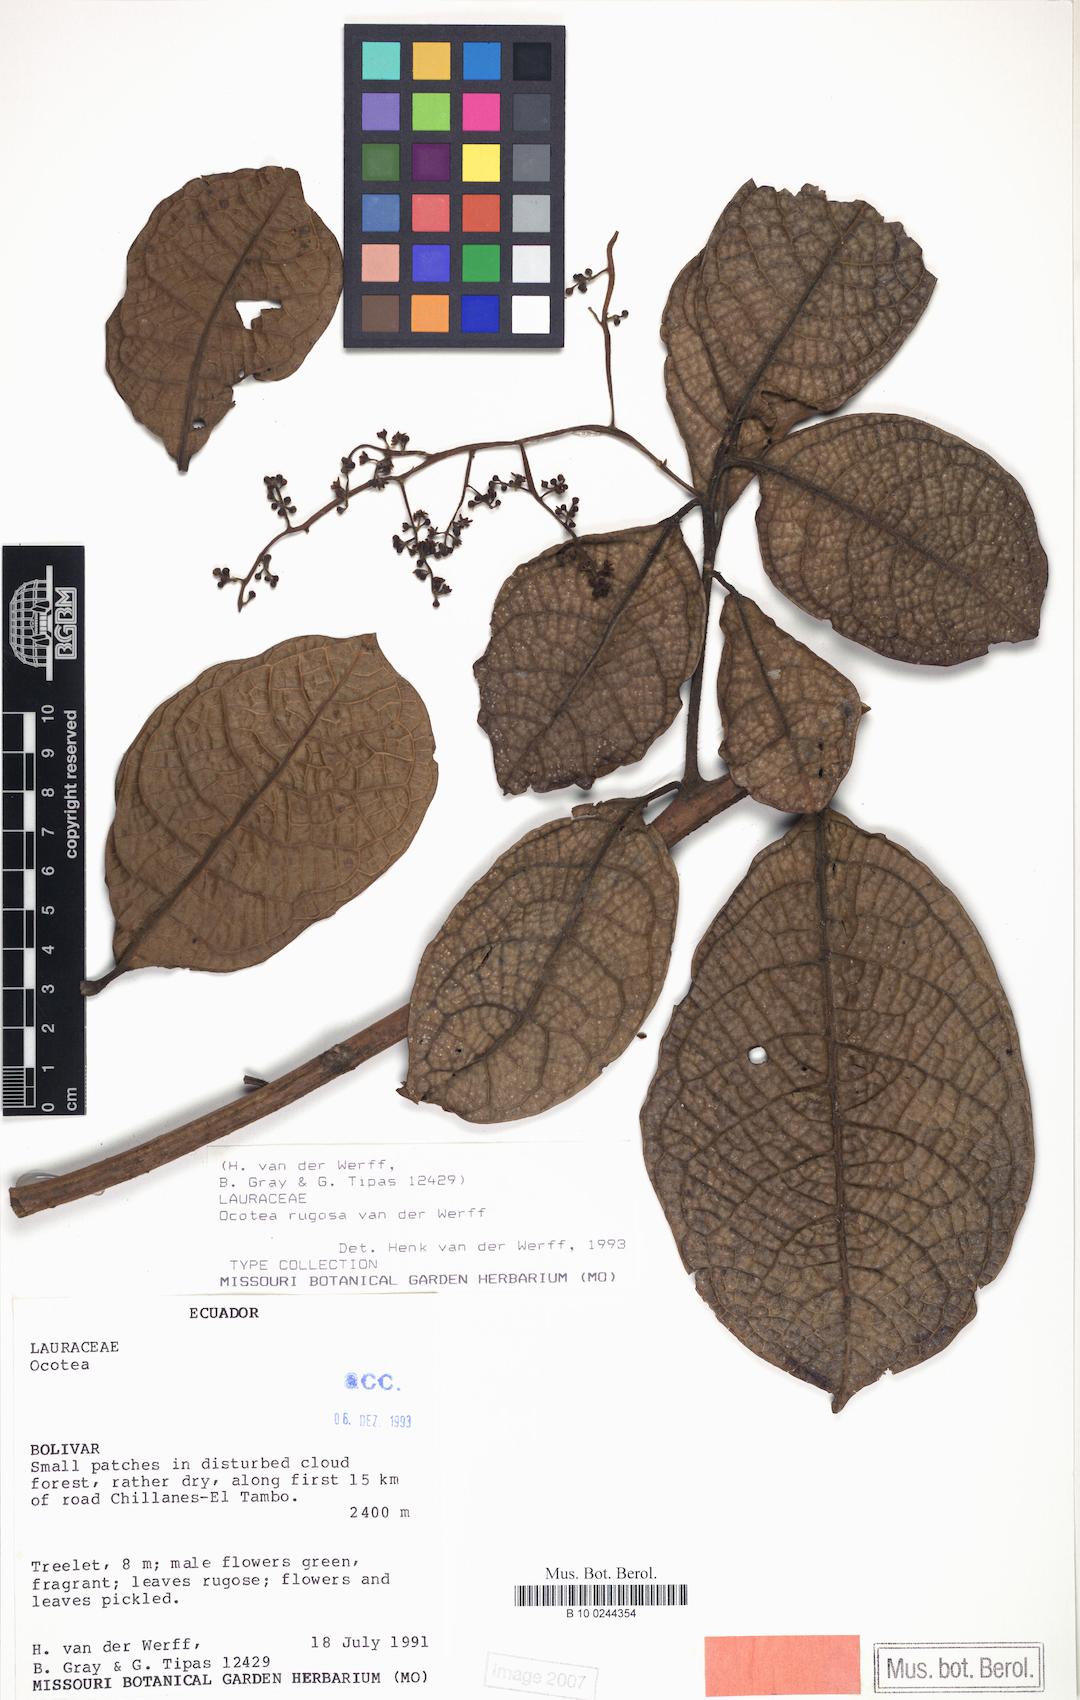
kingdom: Plantae
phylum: Tracheophyta
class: Magnoliopsida
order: Laurales
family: Lauraceae
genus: Ocotea
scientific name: Ocotea rugosa
